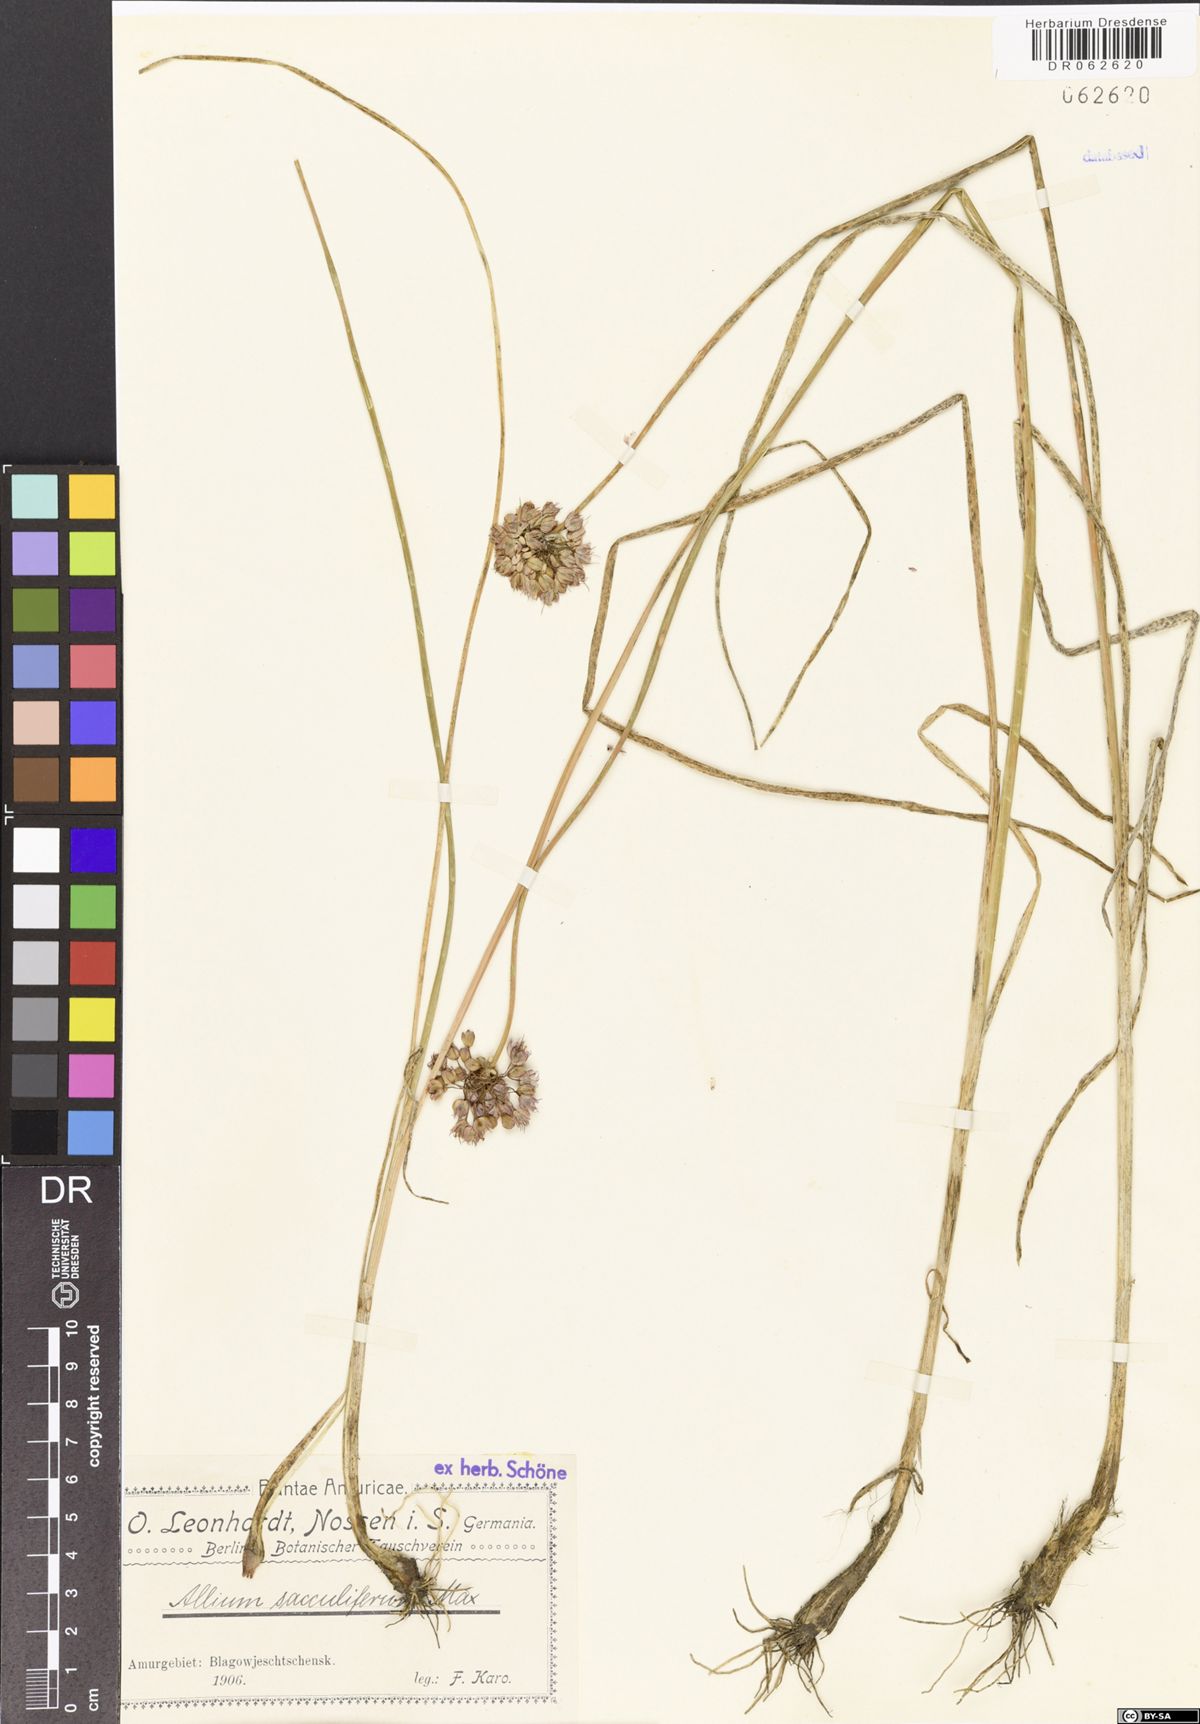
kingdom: Plantae
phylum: Tracheophyta
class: Liliopsida
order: Asparagales
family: Amaryllidaceae
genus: Allium
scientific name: Allium sacculiferum
